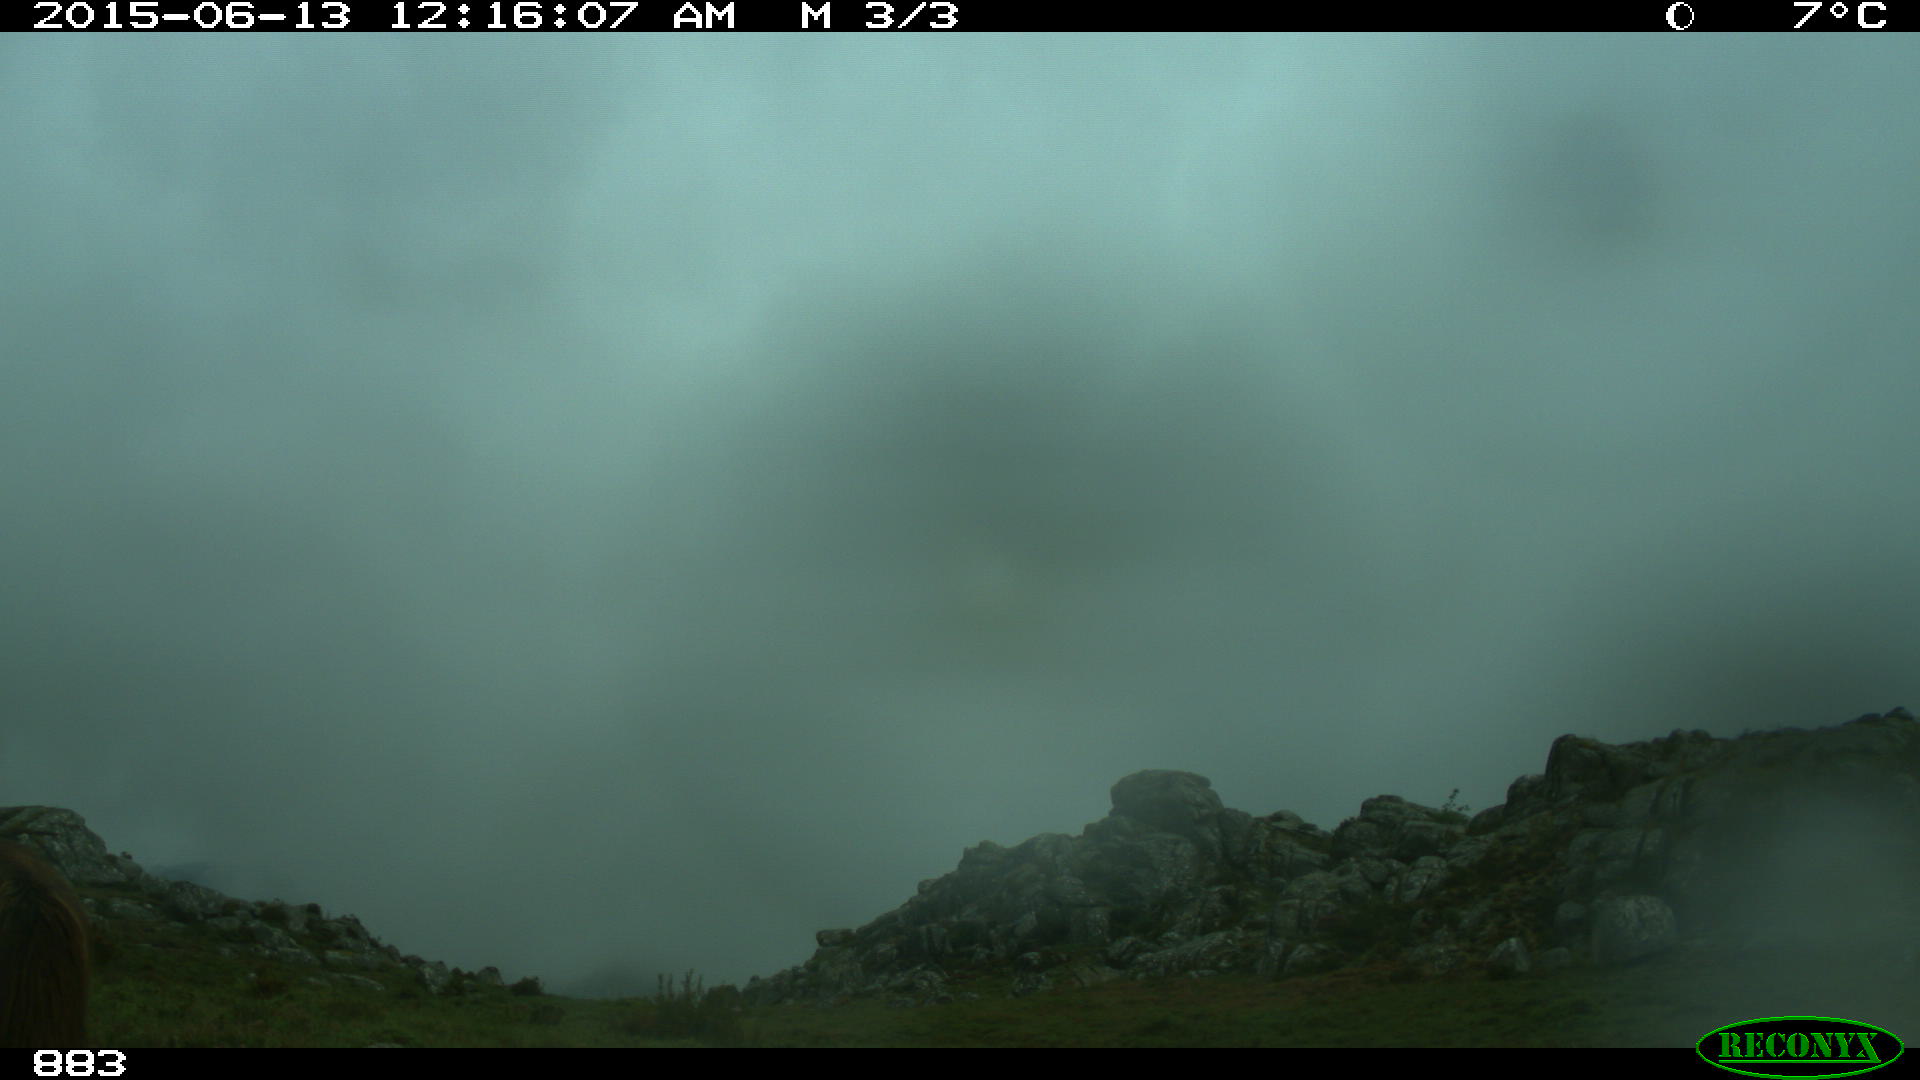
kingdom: Animalia
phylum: Chordata
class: Mammalia
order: Perissodactyla
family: Equidae
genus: Equus
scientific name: Equus caballus
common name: Horse
